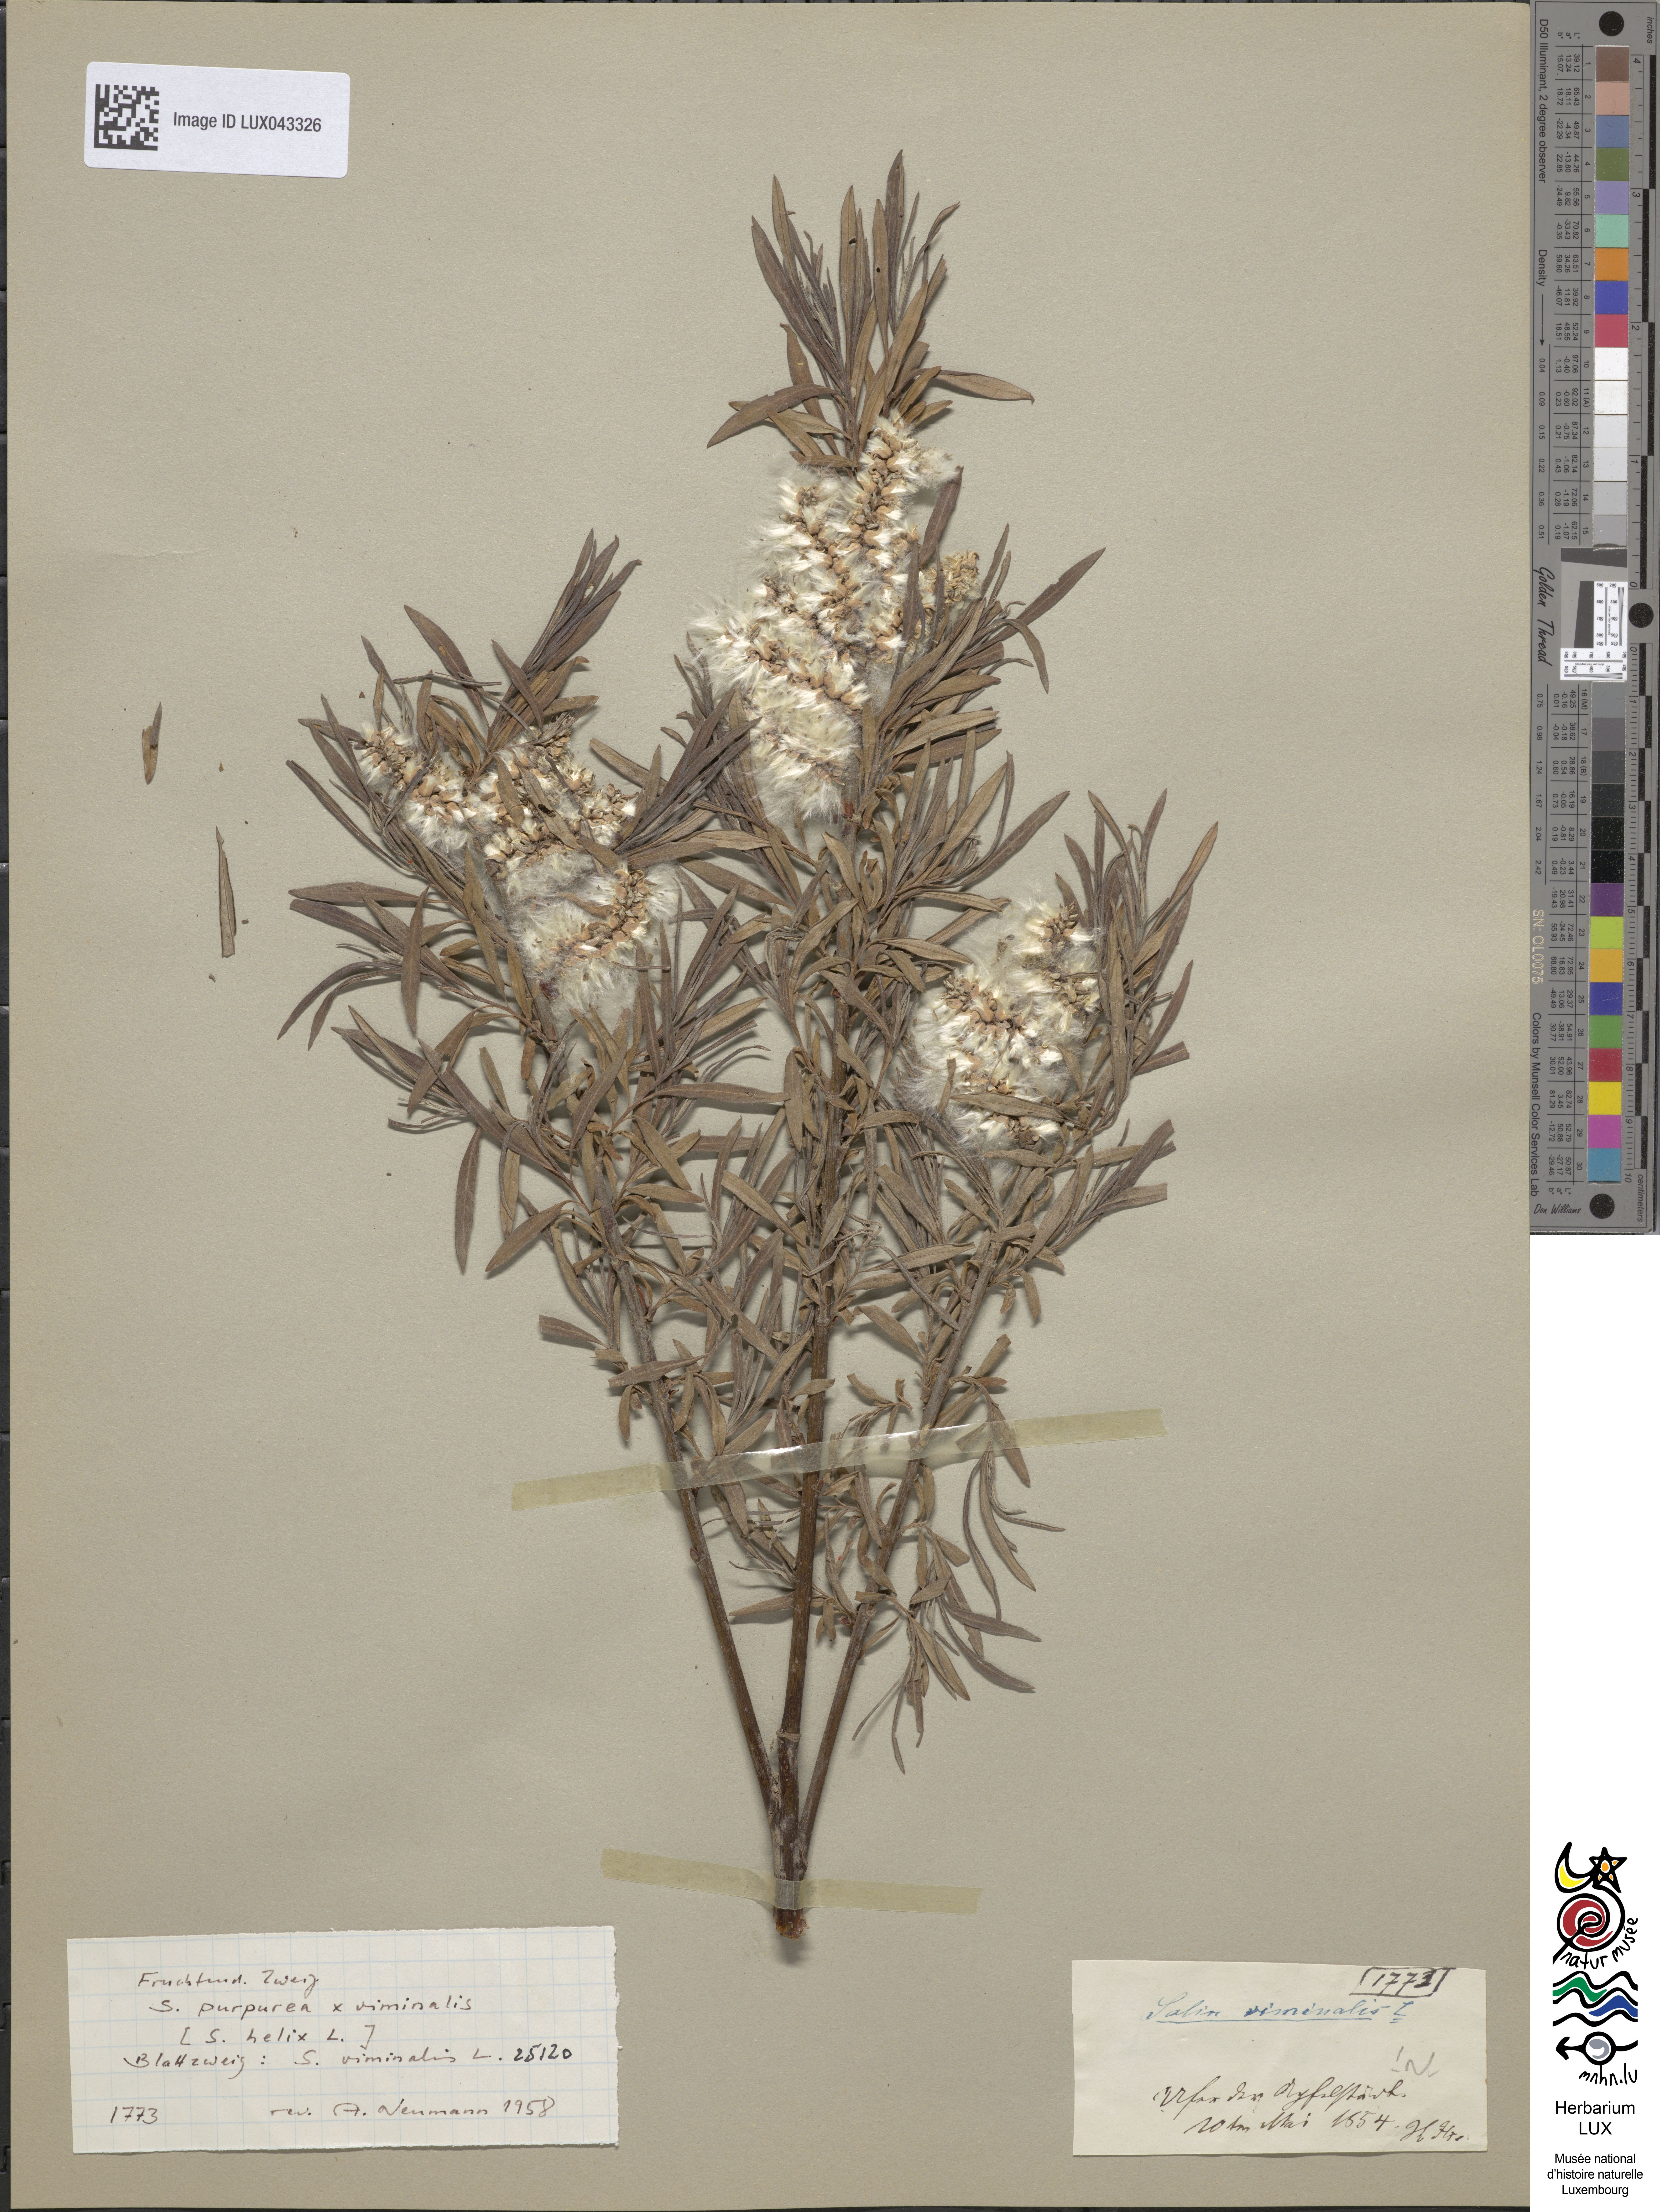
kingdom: Plantae
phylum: Tracheophyta
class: Magnoliopsida
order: Malpighiales
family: Salicaceae
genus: Salix
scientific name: Salix viminalis
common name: Osier
